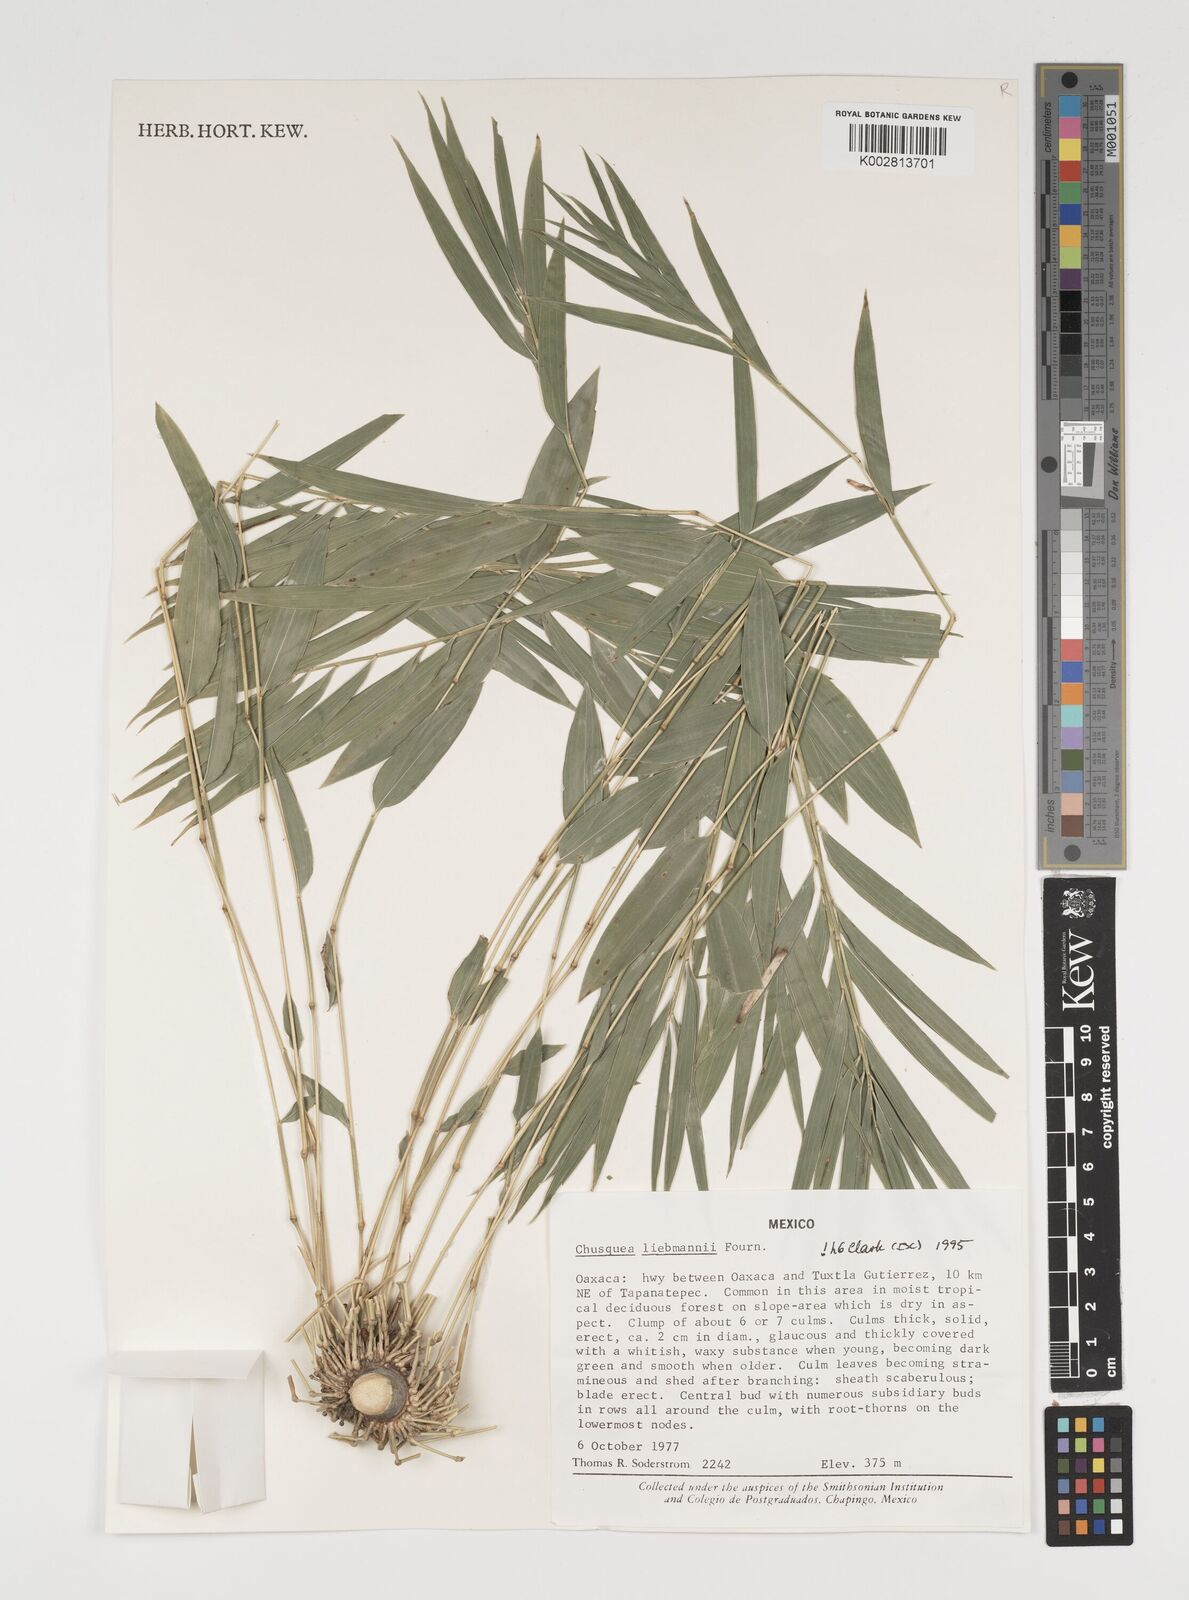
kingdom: Plantae
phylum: Tracheophyta
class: Liliopsida
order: Poales
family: Poaceae
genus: Chusquea
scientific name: Chusquea liebmannii
